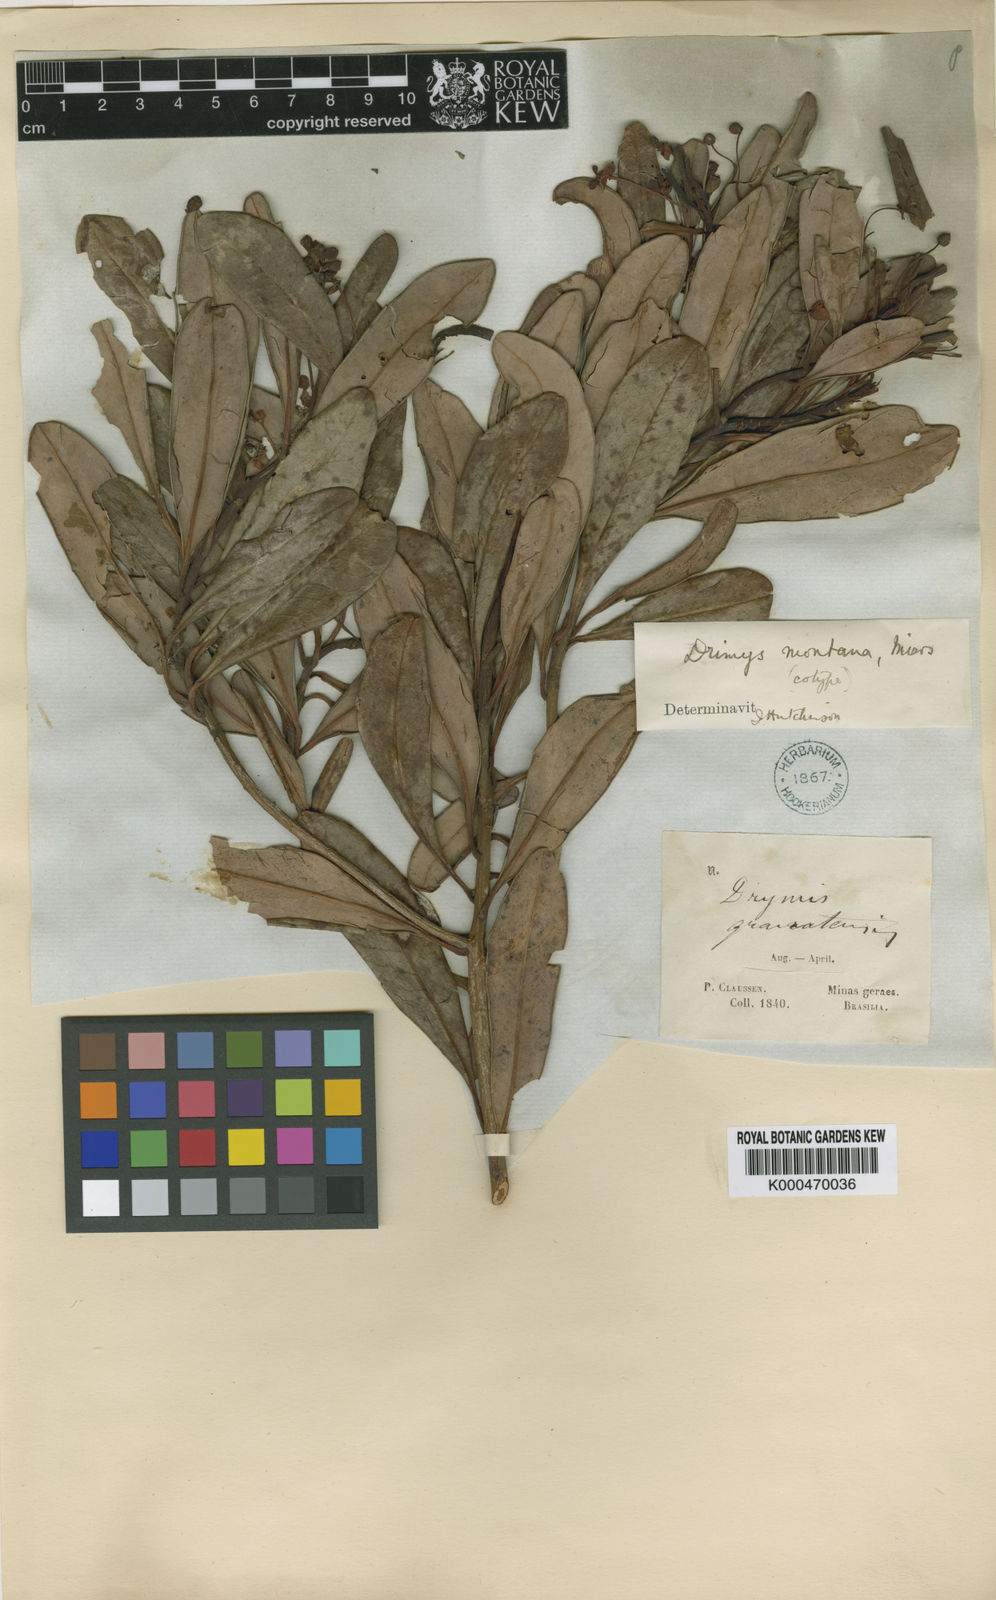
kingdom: Plantae
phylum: Tracheophyta
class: Magnoliopsida
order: Canellales
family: Winteraceae
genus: Drimys
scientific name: Drimys
